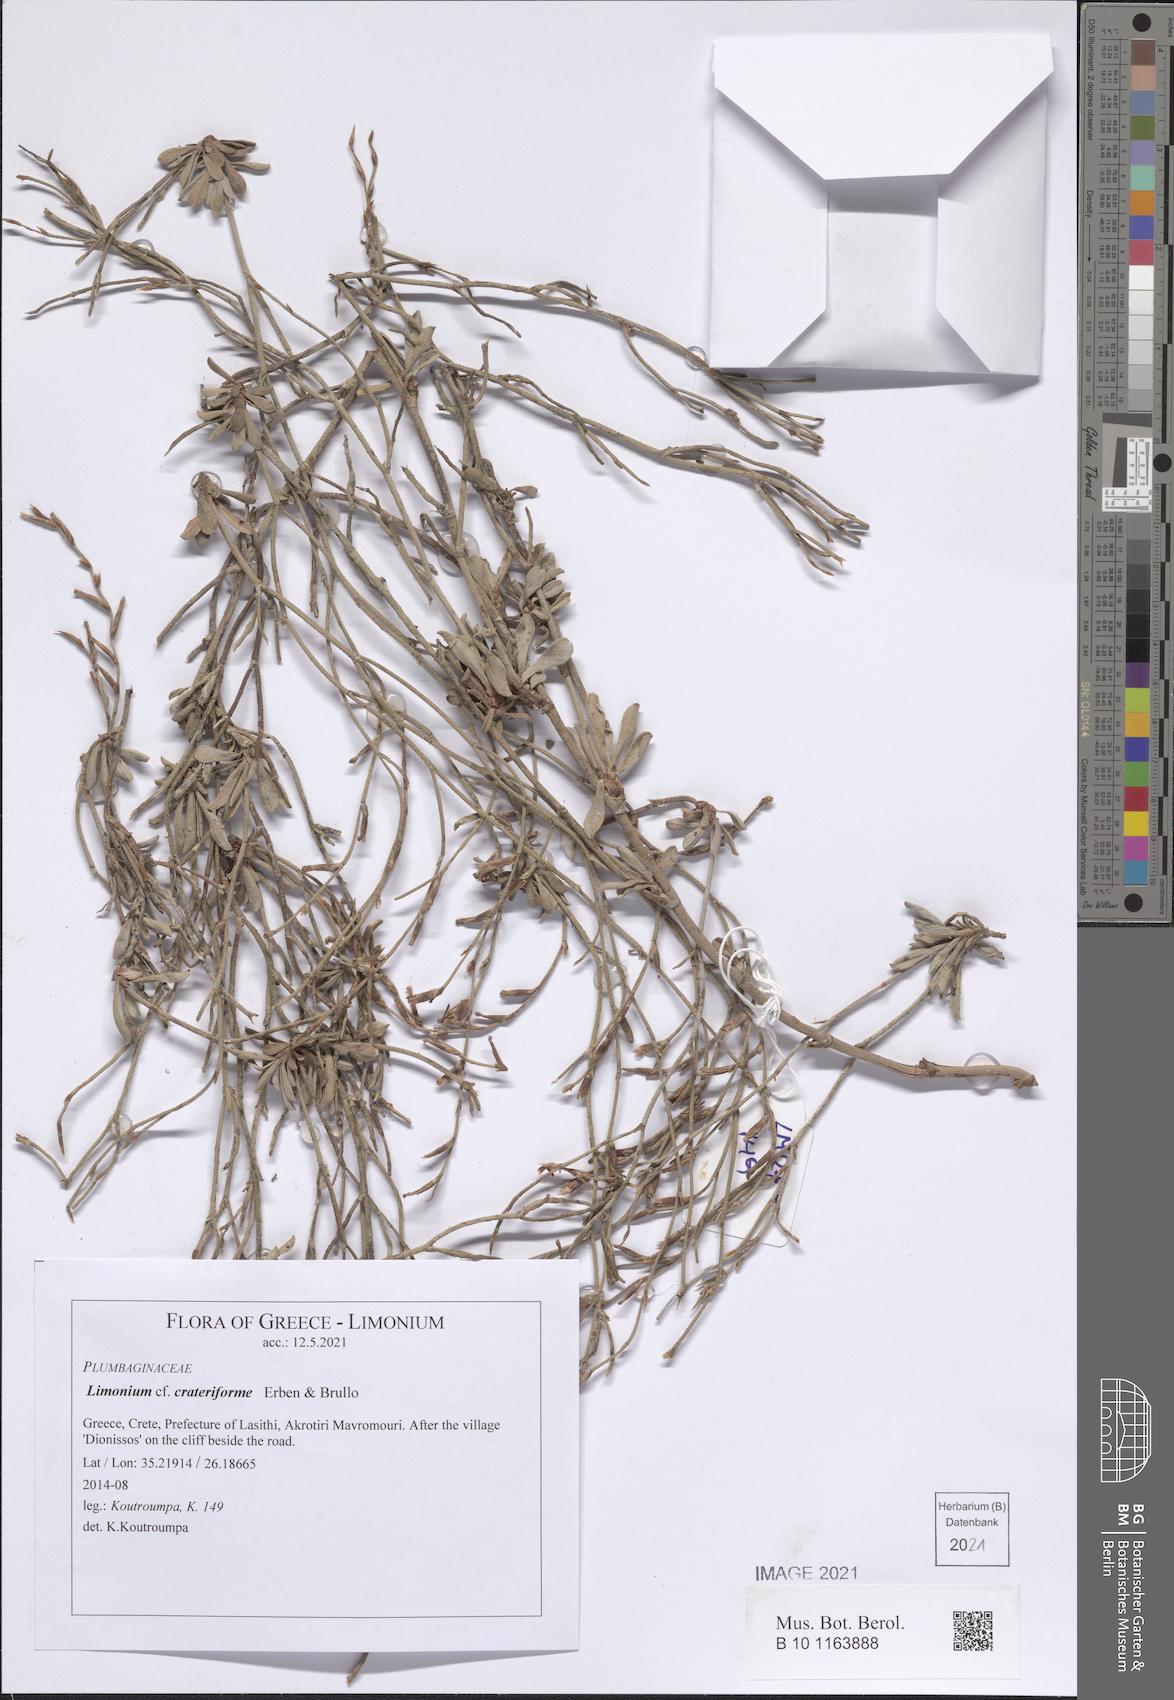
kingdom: Plantae
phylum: Tracheophyta
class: Magnoliopsida
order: Caryophyllales
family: Plumbaginaceae
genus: Limonium
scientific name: Limonium crateriforme
